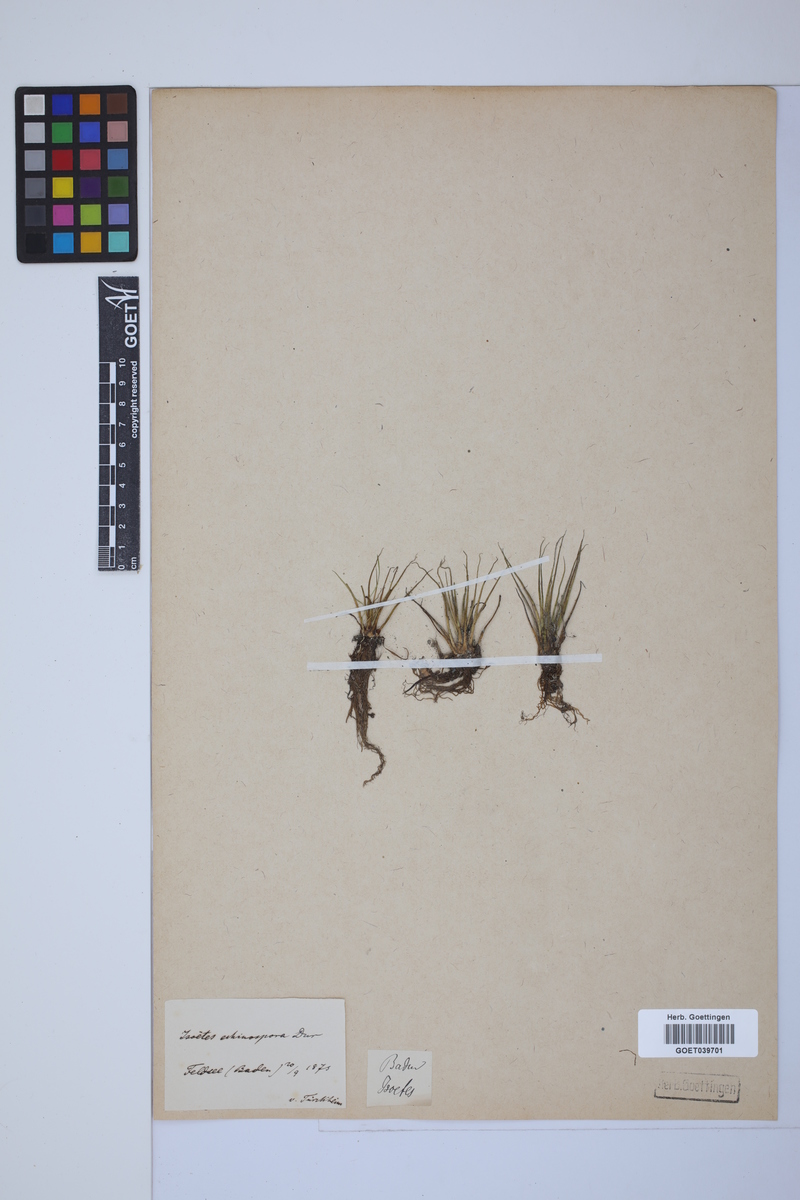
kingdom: Plantae
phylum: Tracheophyta
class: Lycopodiopsida
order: Isoetales
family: Isoetaceae
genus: Isoetes
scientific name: Isoetes echinospora
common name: Spring quillwort
